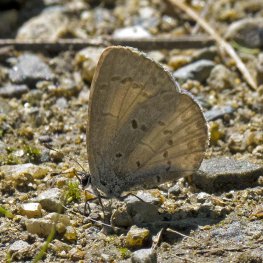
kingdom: Animalia
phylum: Arthropoda
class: Insecta
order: Lepidoptera
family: Lycaenidae
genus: Celastrina
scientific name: Celastrina lucia
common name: Northern Spring Azure
